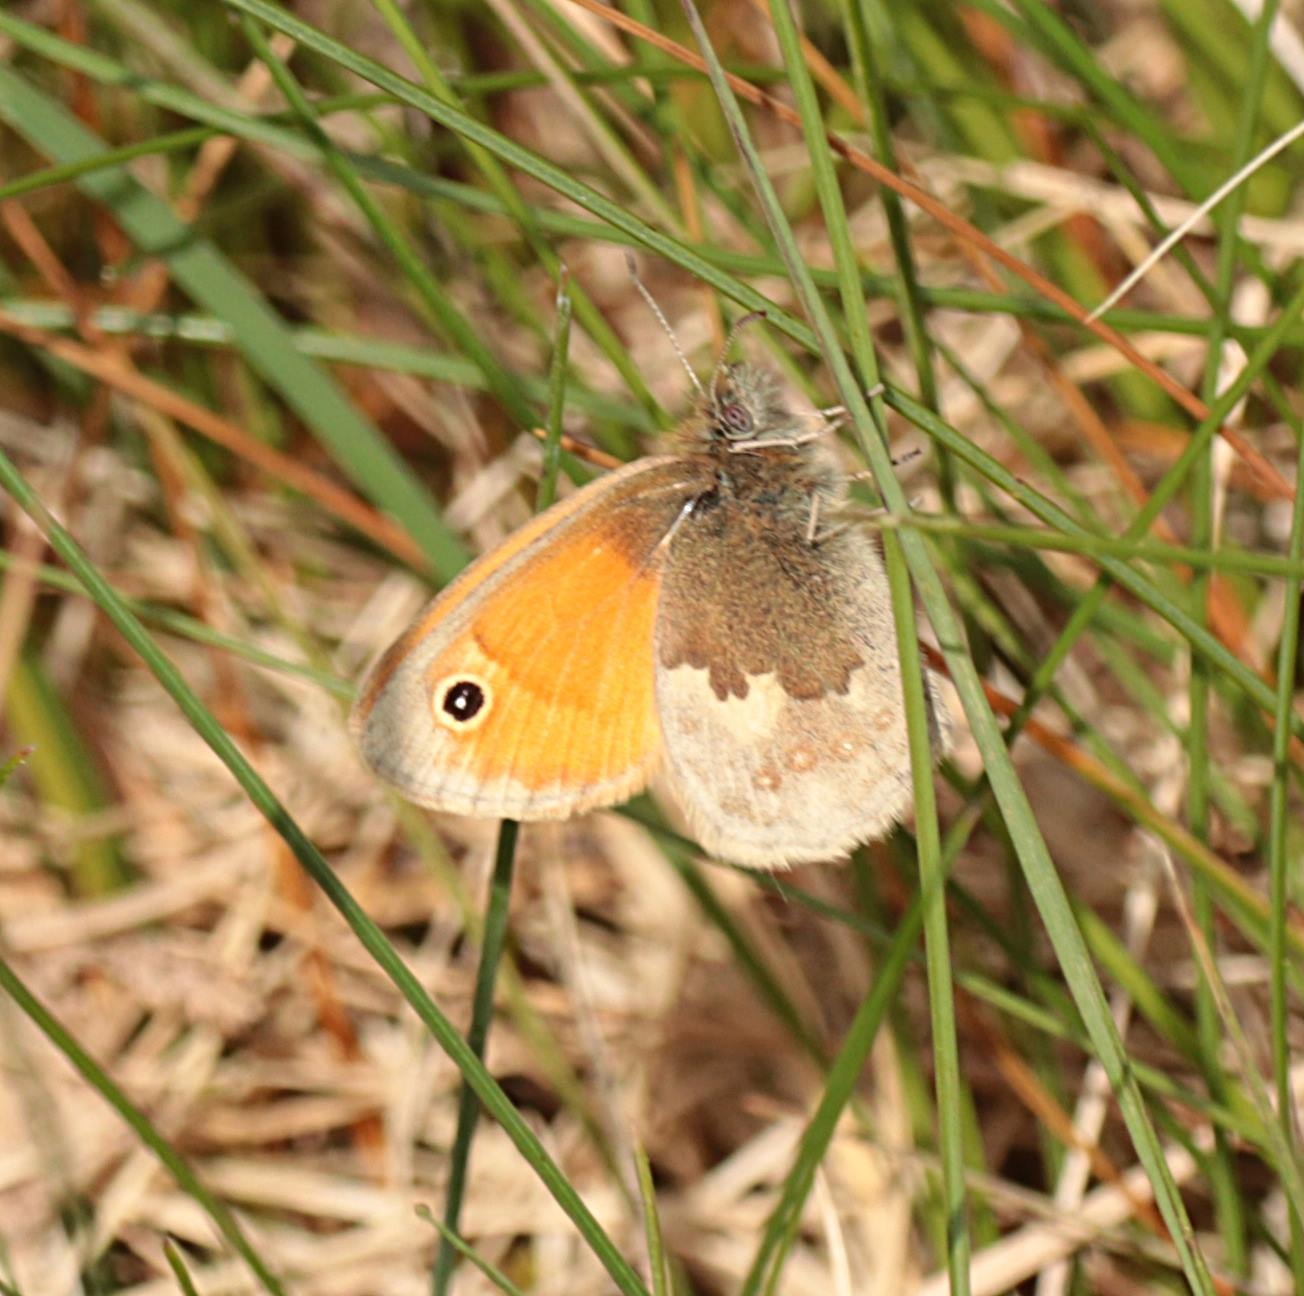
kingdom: Animalia
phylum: Arthropoda
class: Insecta
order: Lepidoptera
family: Nymphalidae
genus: Coenonympha
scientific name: Coenonympha pamphilus
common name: Okkergul randøje
